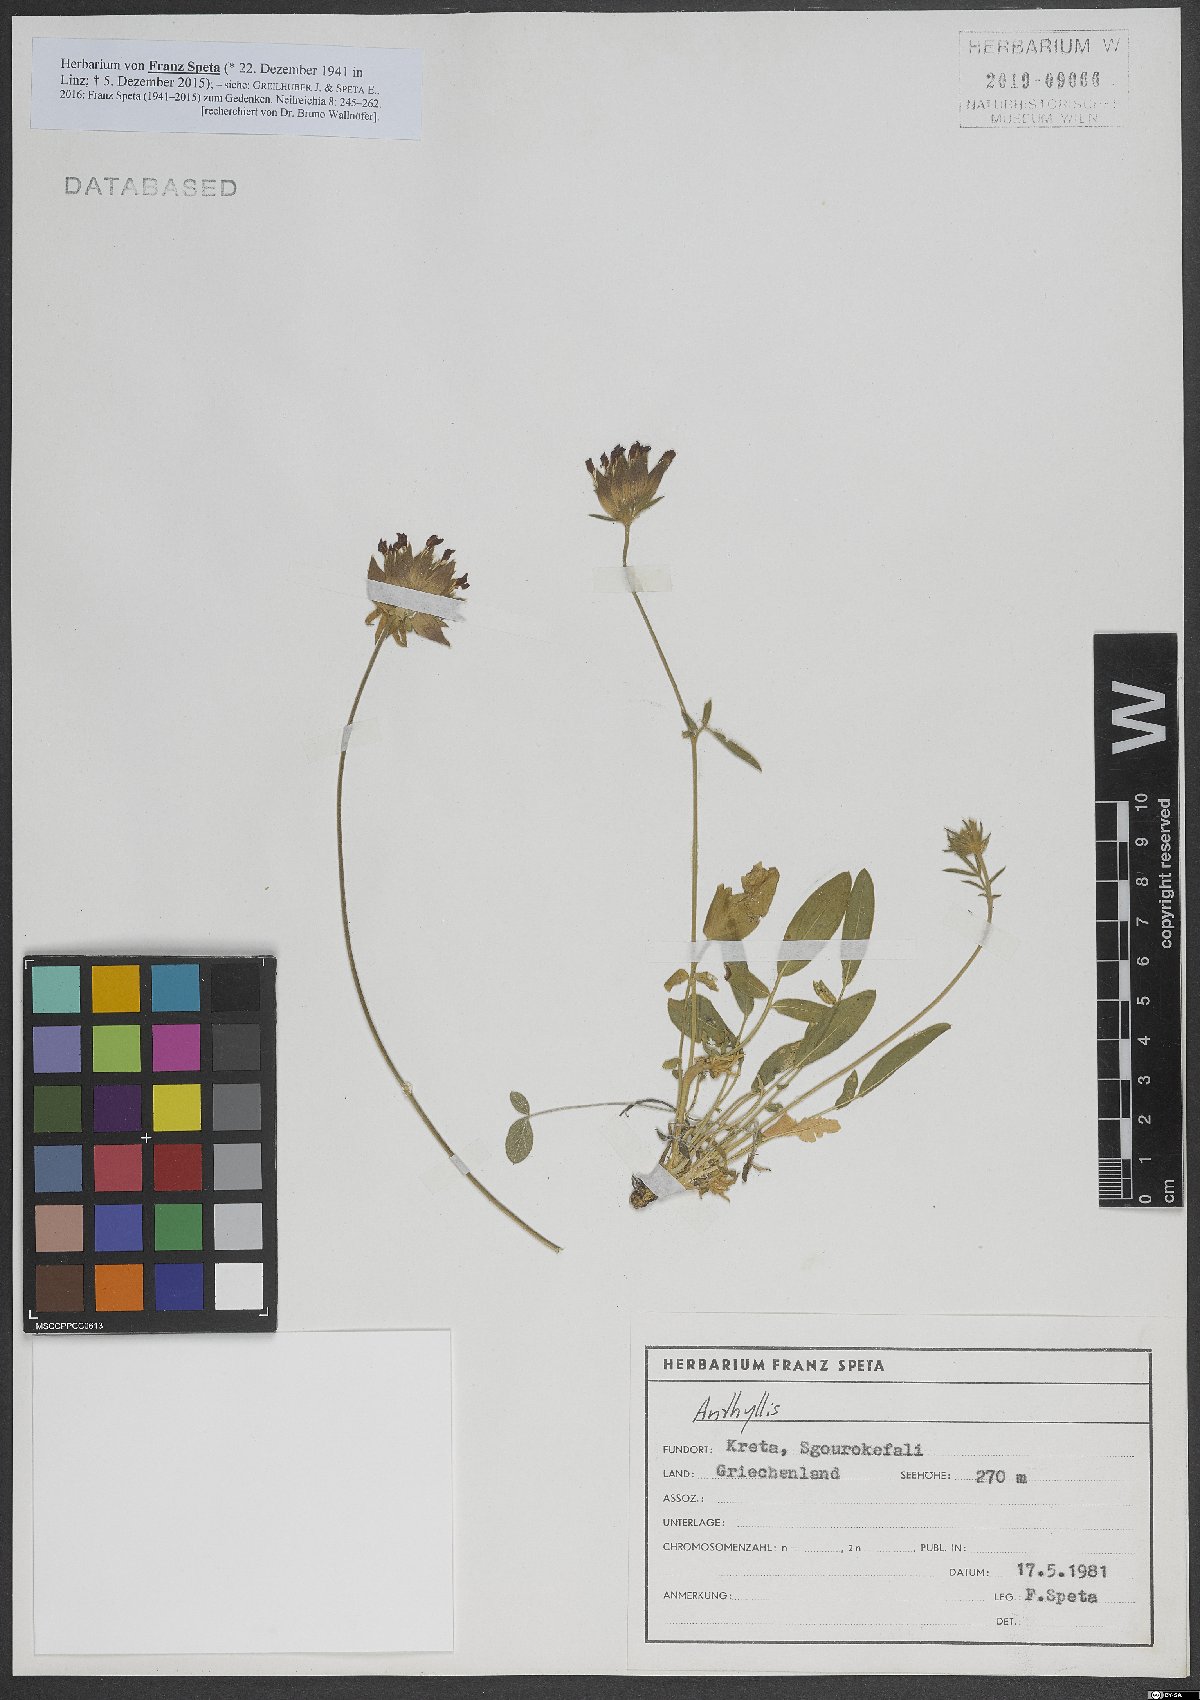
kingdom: Plantae
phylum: Tracheophyta
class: Magnoliopsida
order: Fabales
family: Fabaceae
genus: Anthyllis
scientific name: Anthyllis
